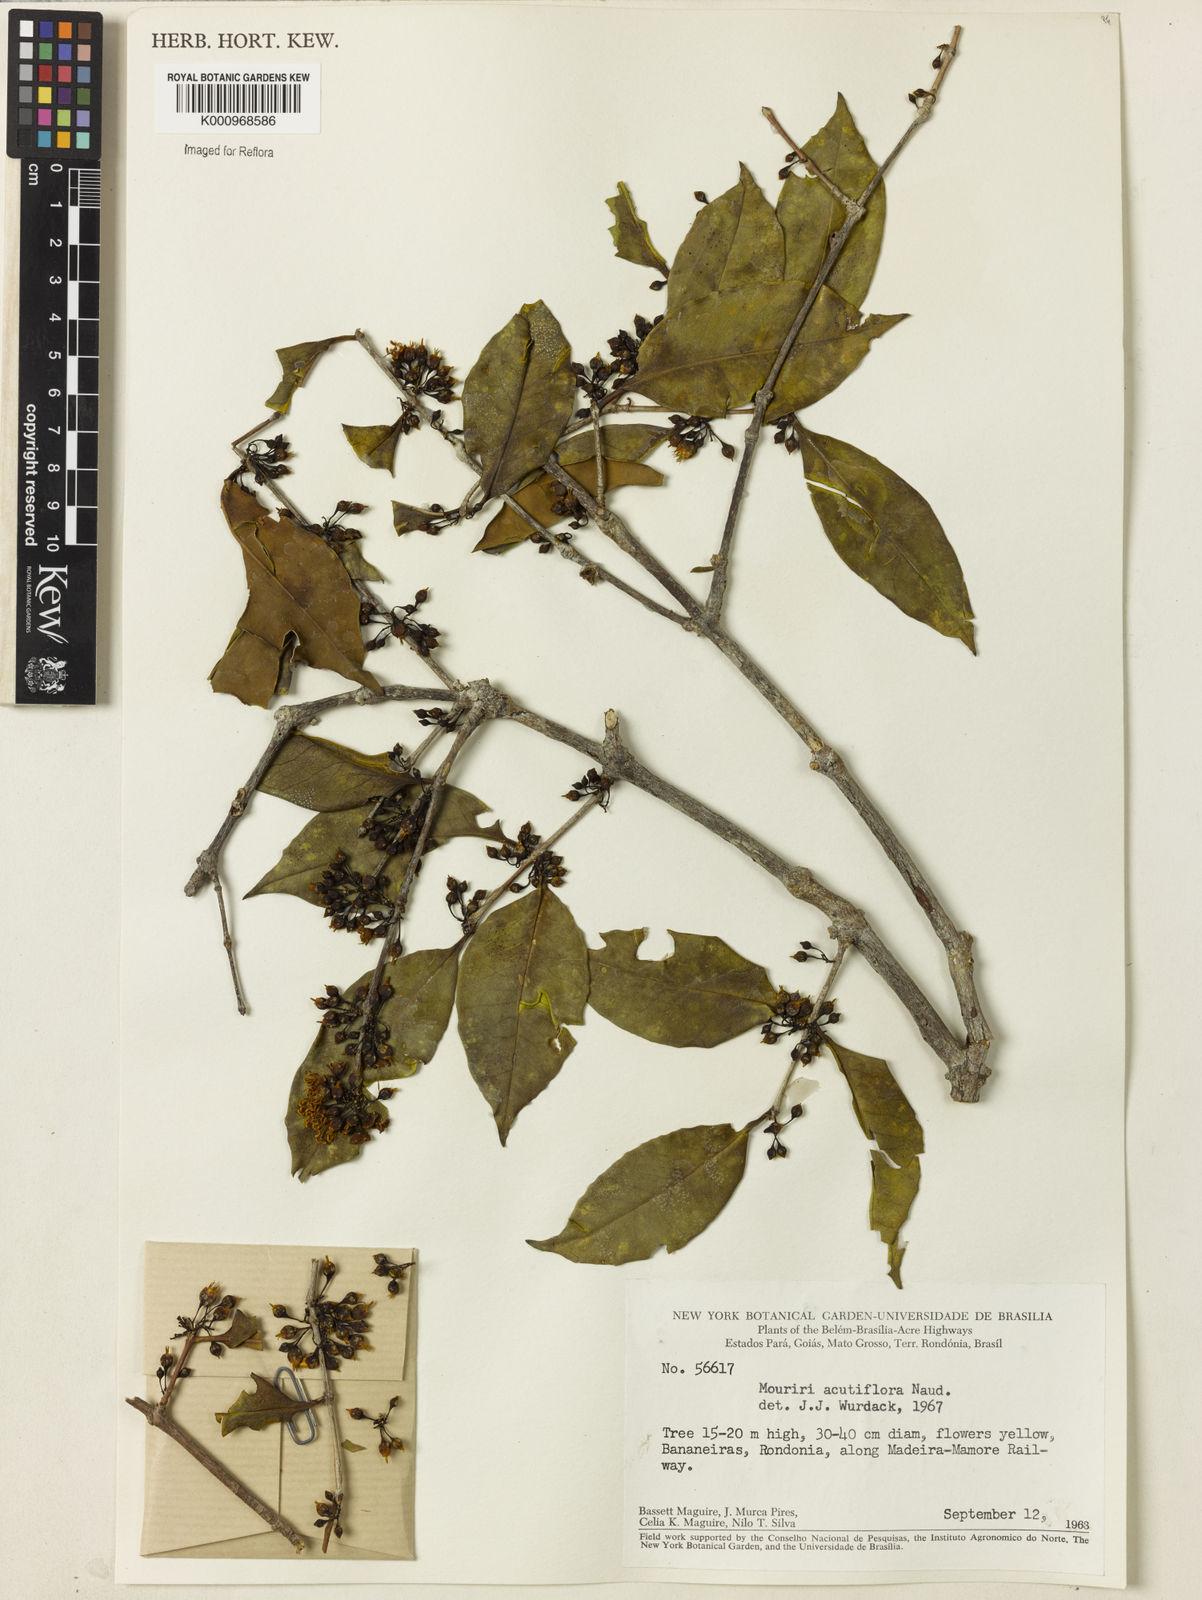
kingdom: Plantae
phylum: Tracheophyta
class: Magnoliopsida
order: Myrtales
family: Melastomataceae
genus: Mouriri
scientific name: Mouriri acutiflora
